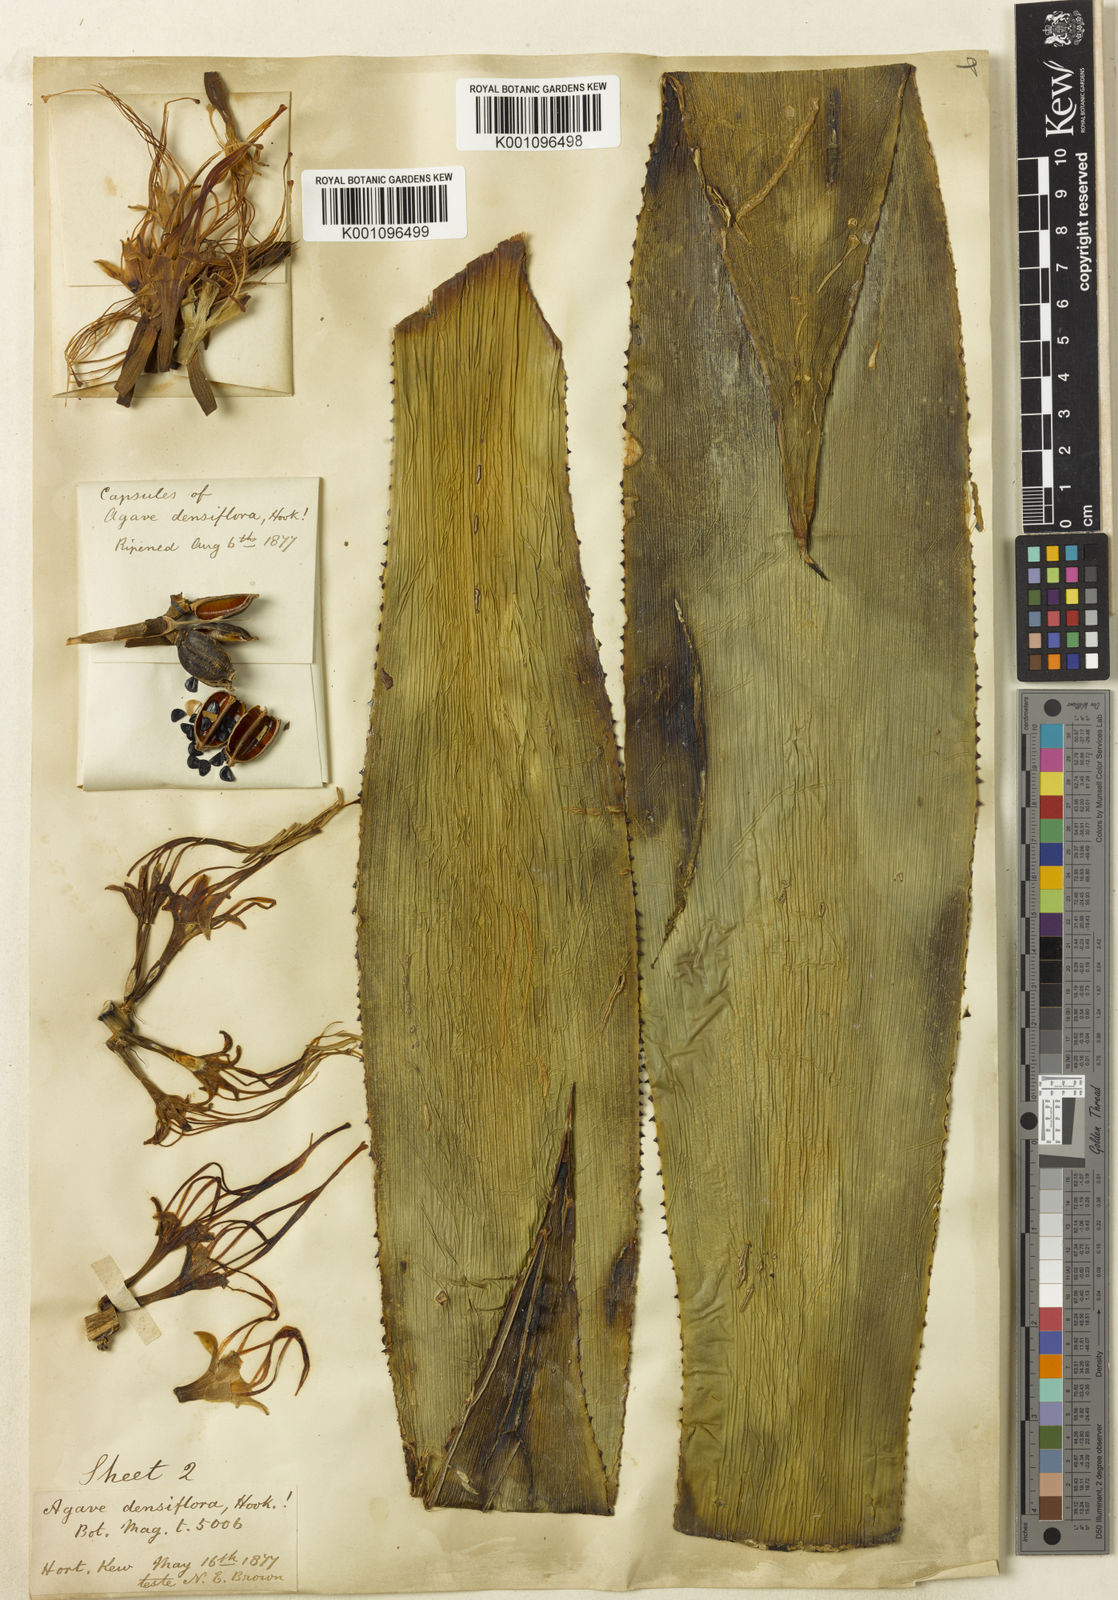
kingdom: Plantae
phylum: Tracheophyta
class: Liliopsida
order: Asparagales
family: Asparagaceae
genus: Agave
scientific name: Agave polyacantha
